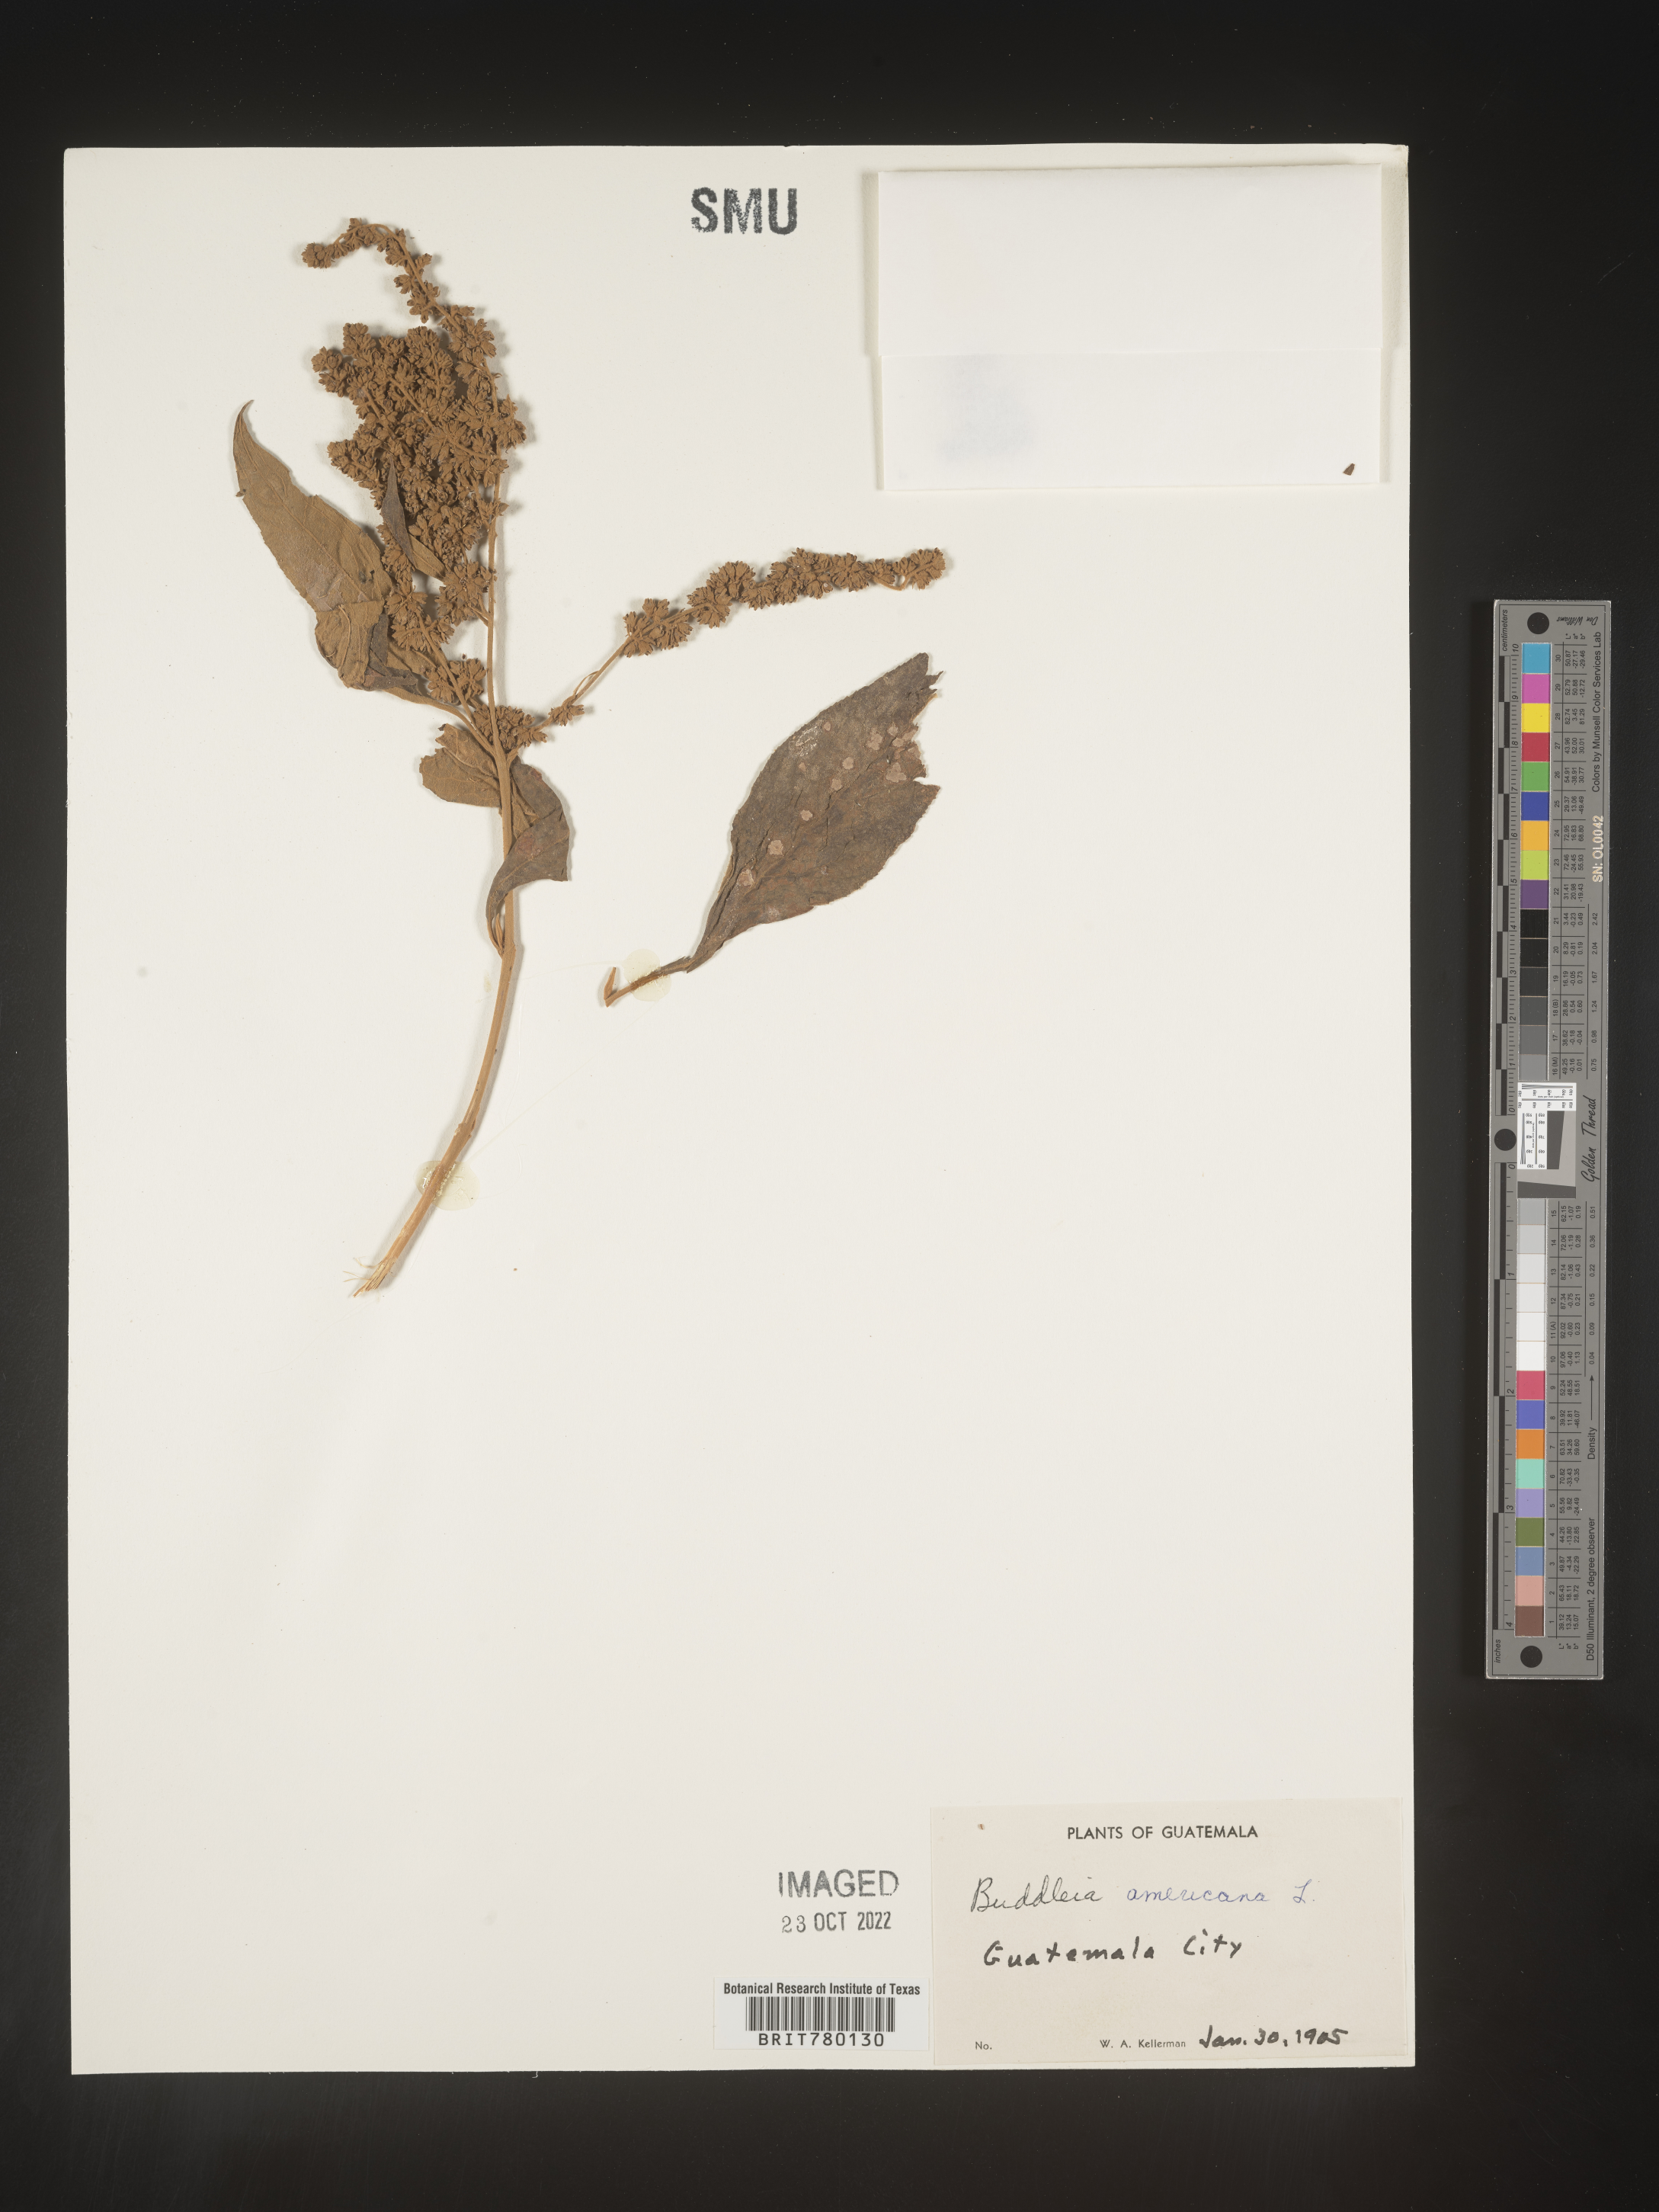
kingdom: Plantae
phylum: Tracheophyta
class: Magnoliopsida
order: Lamiales
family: Scrophulariaceae
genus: Buddleja
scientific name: Buddleja
